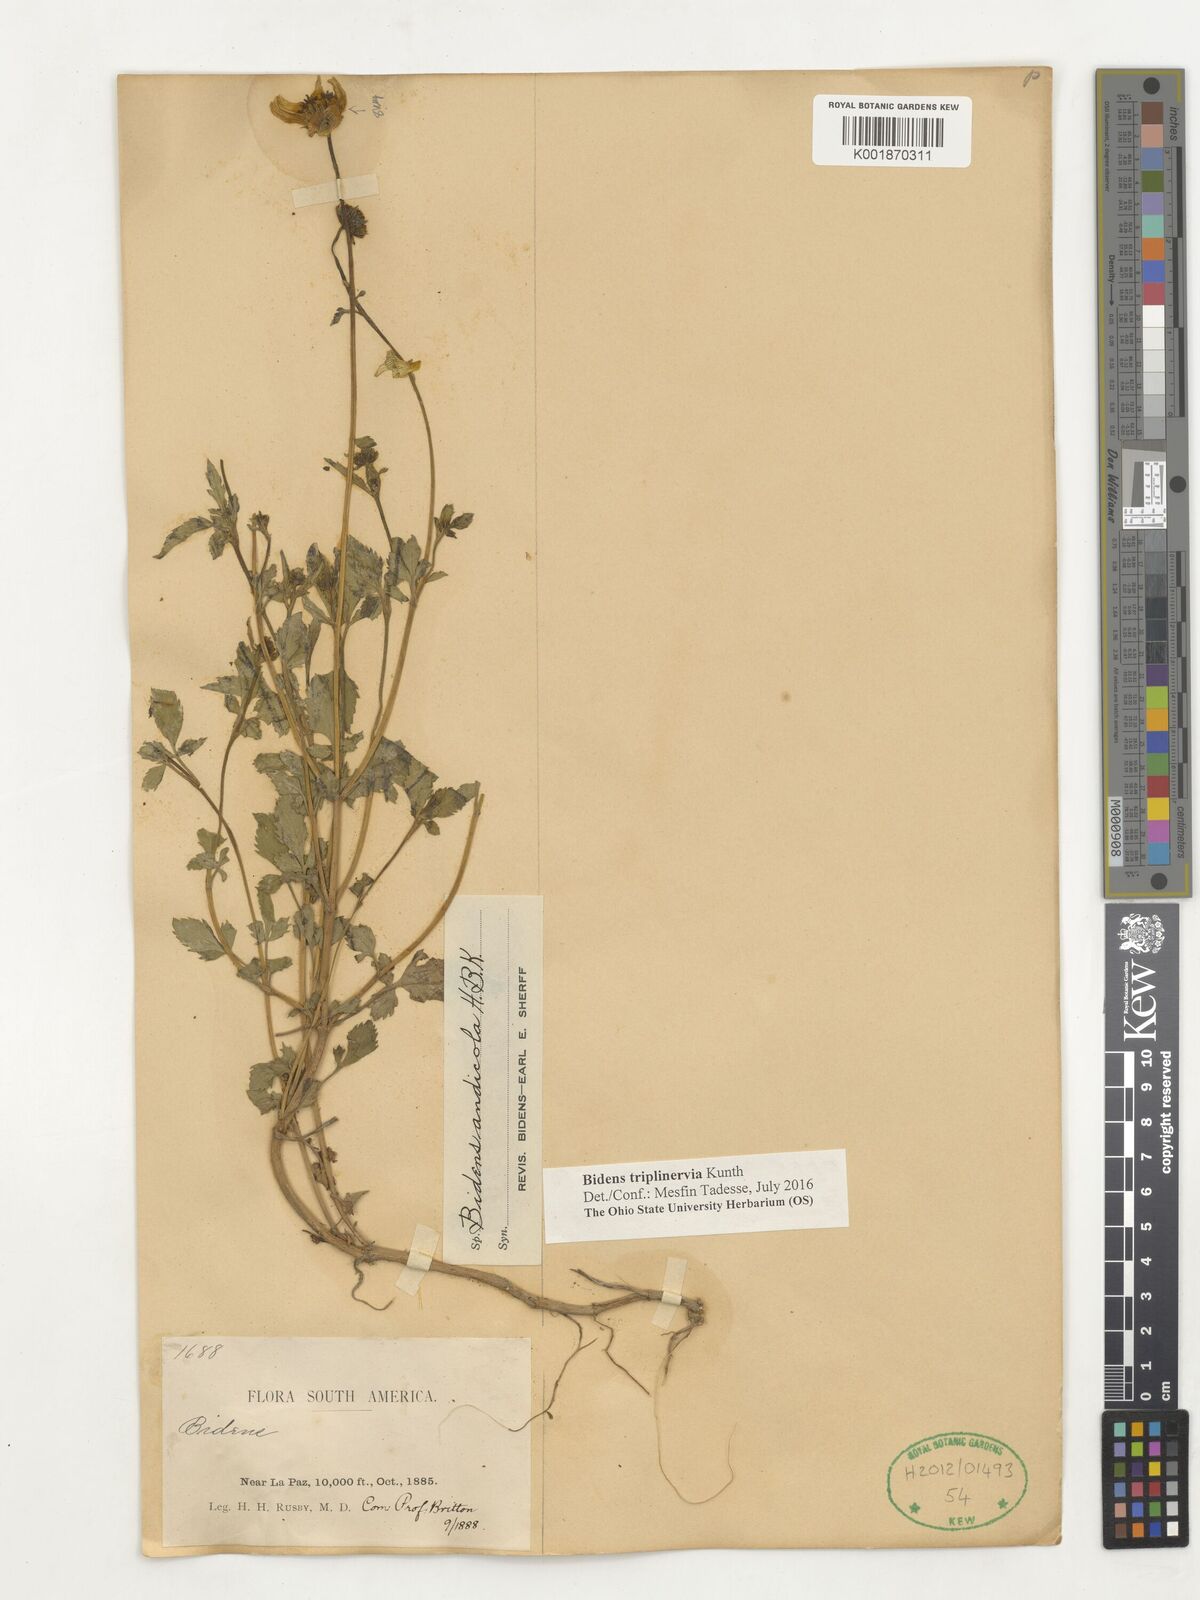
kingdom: Plantae
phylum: Tracheophyta
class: Magnoliopsida
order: Asterales
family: Asteraceae
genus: Bidens
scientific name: Bidens triplinervia
